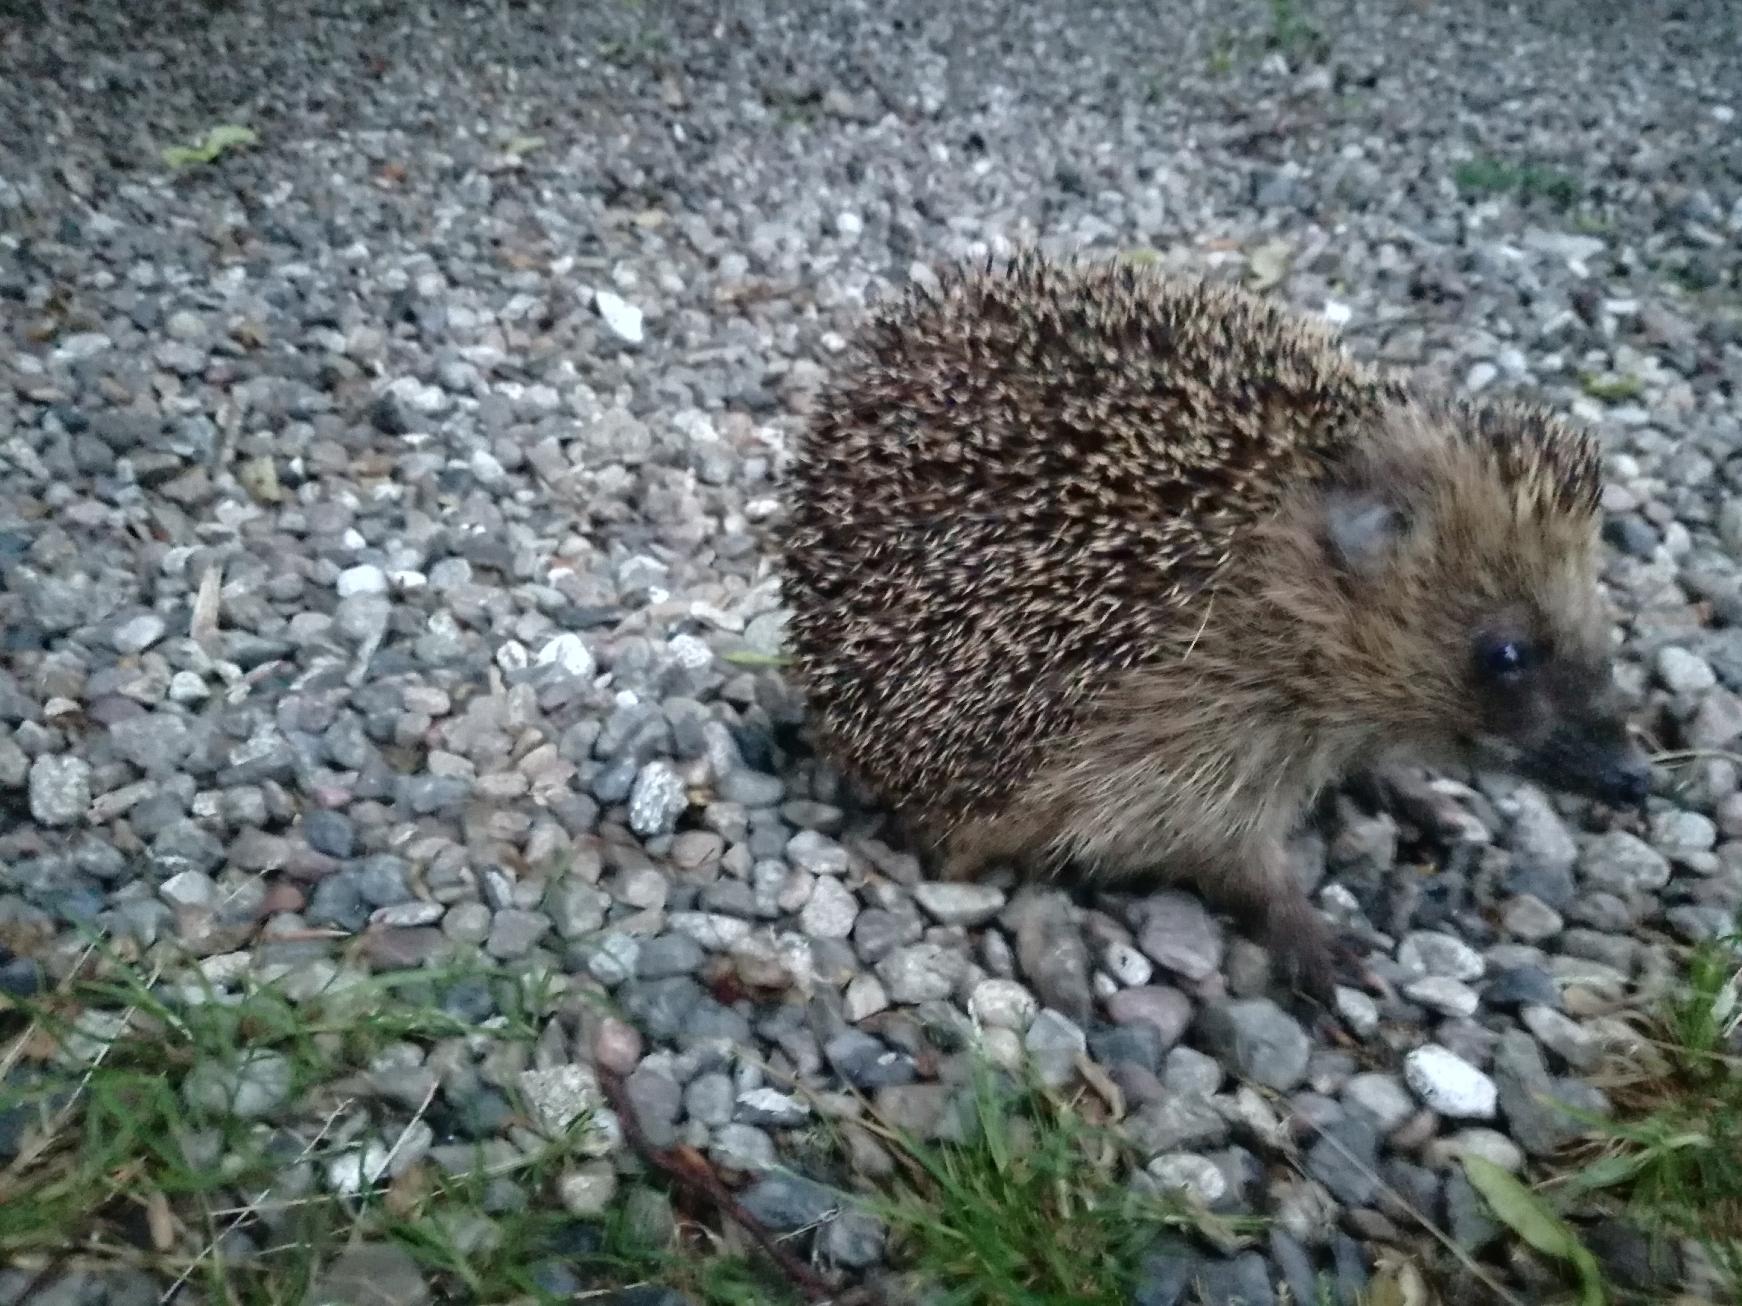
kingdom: Animalia
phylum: Chordata
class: Mammalia
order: Erinaceomorpha
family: Erinaceidae
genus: Erinaceus
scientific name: Erinaceus europaeus
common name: Pindsvin
